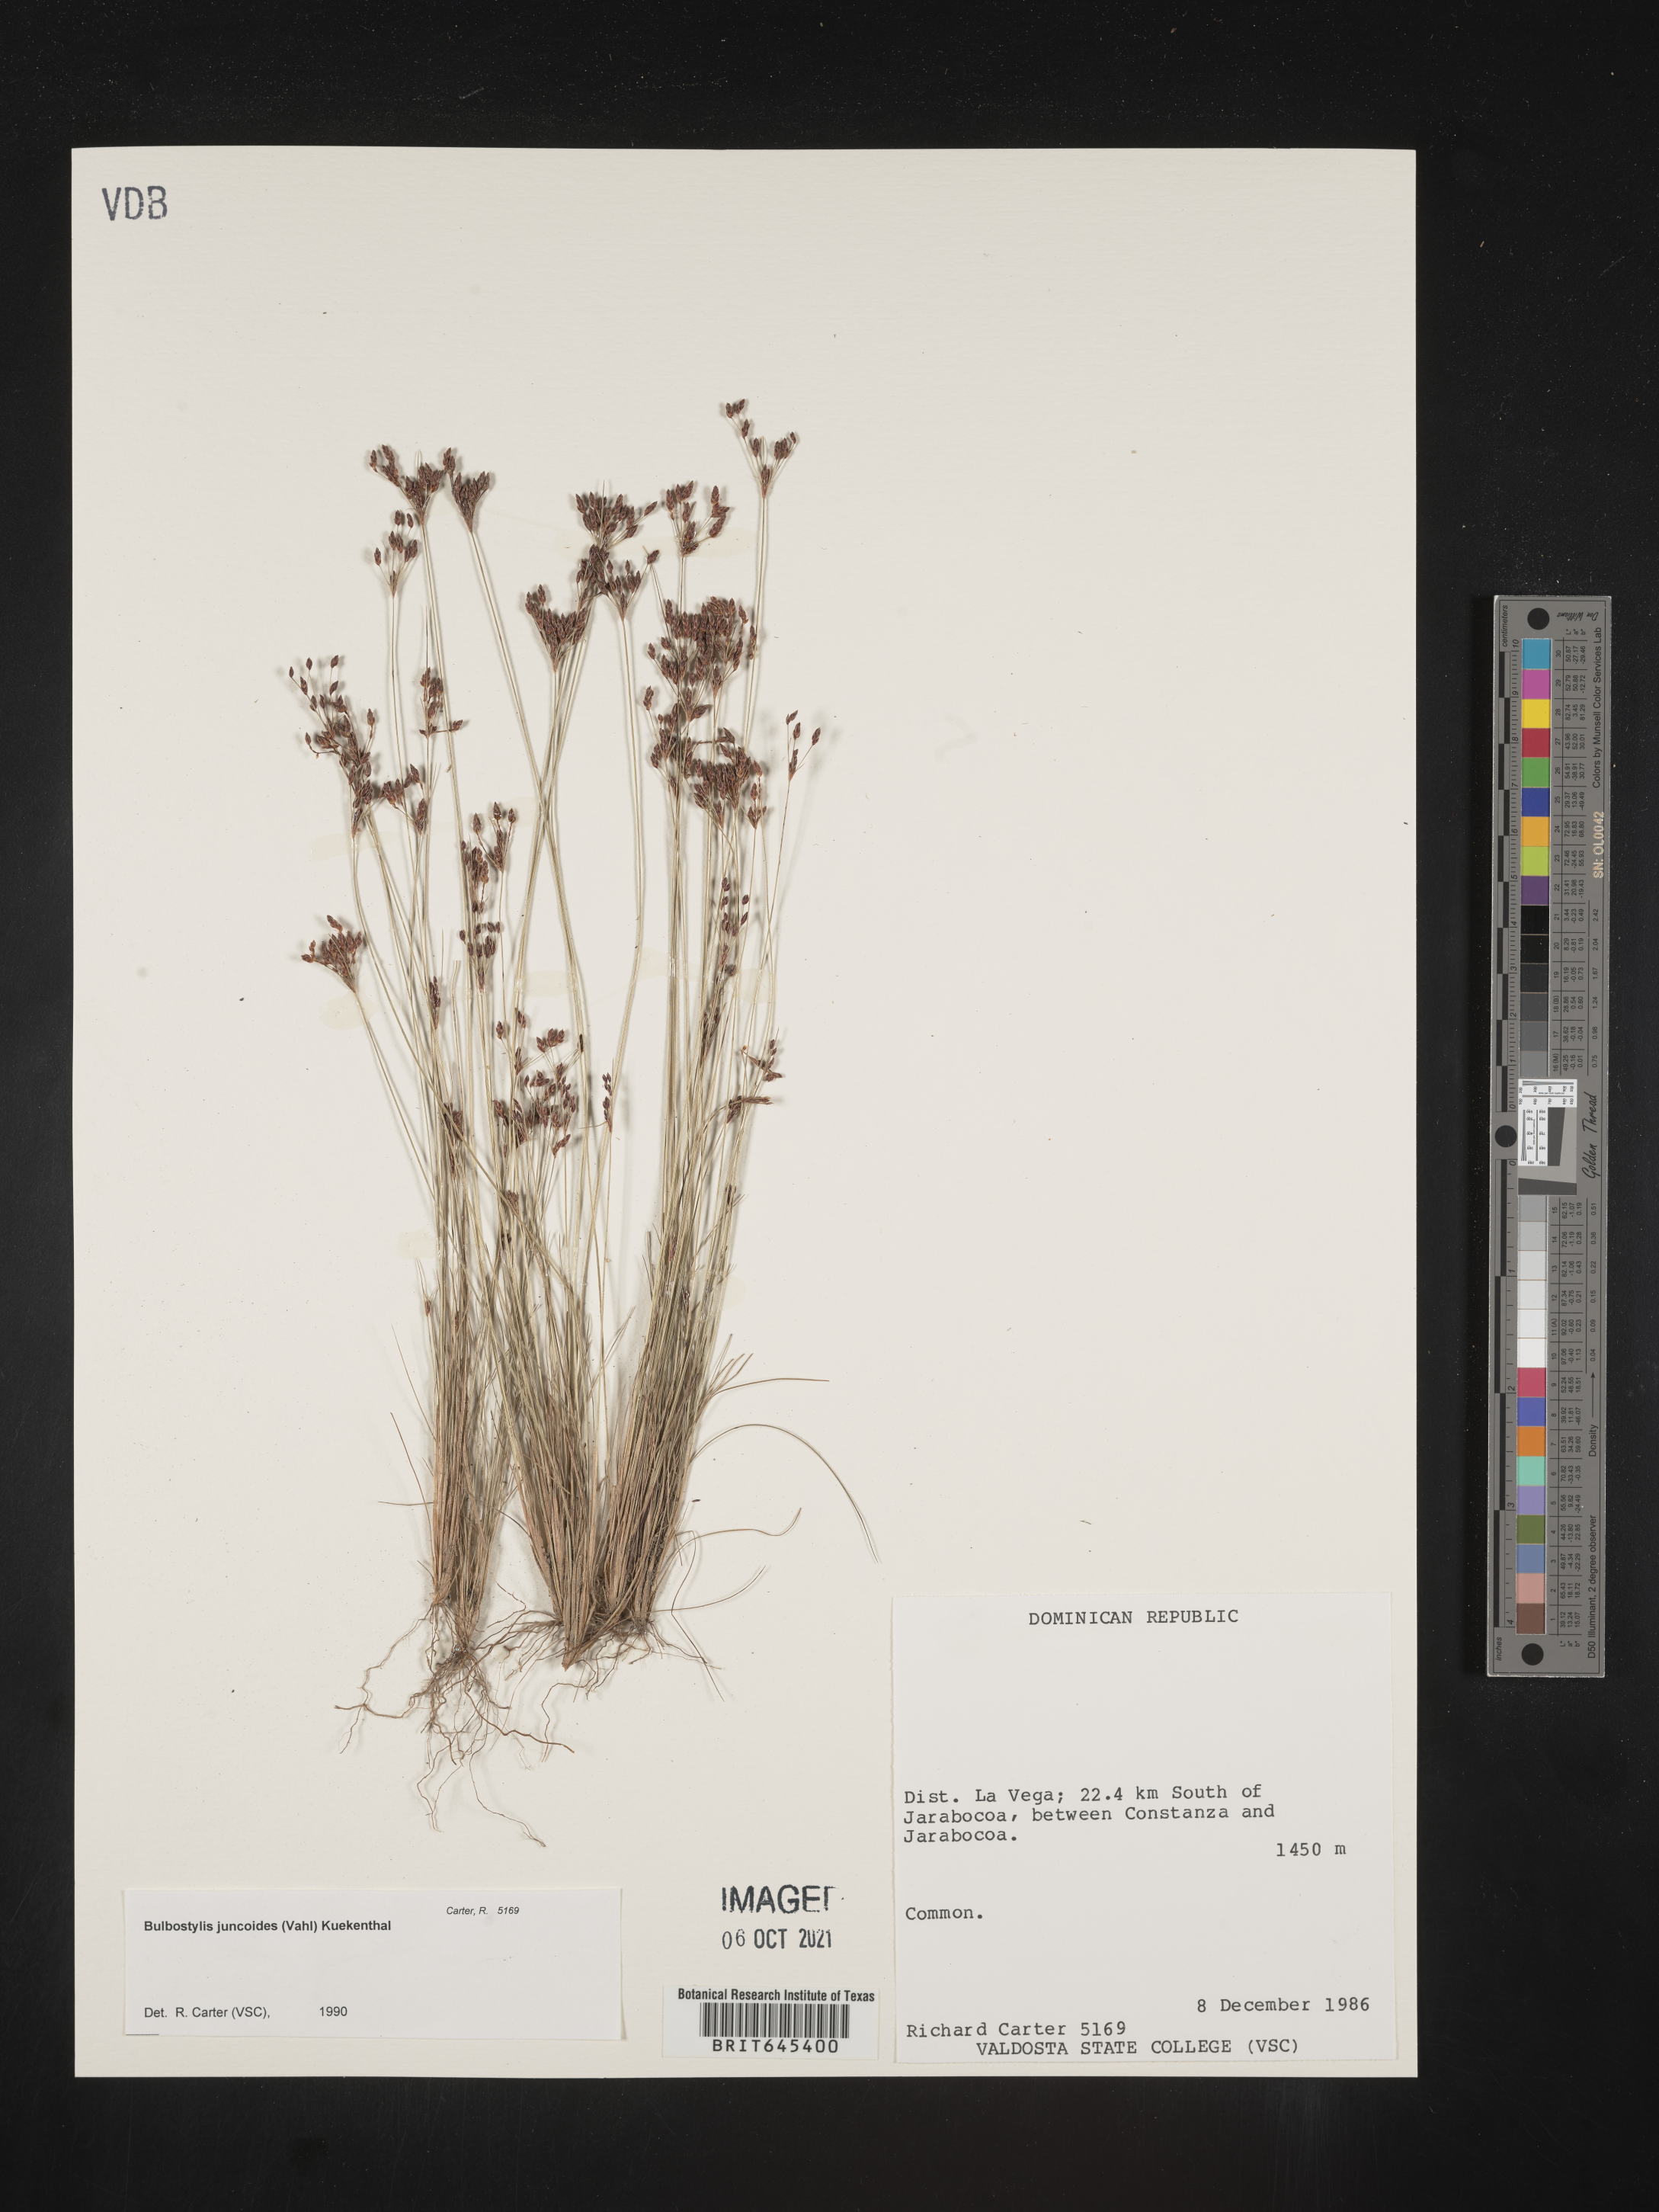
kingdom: Plantae
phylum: Tracheophyta
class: Liliopsida
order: Poales
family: Cyperaceae
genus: Bulbostylis
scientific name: Bulbostylis juncoides
